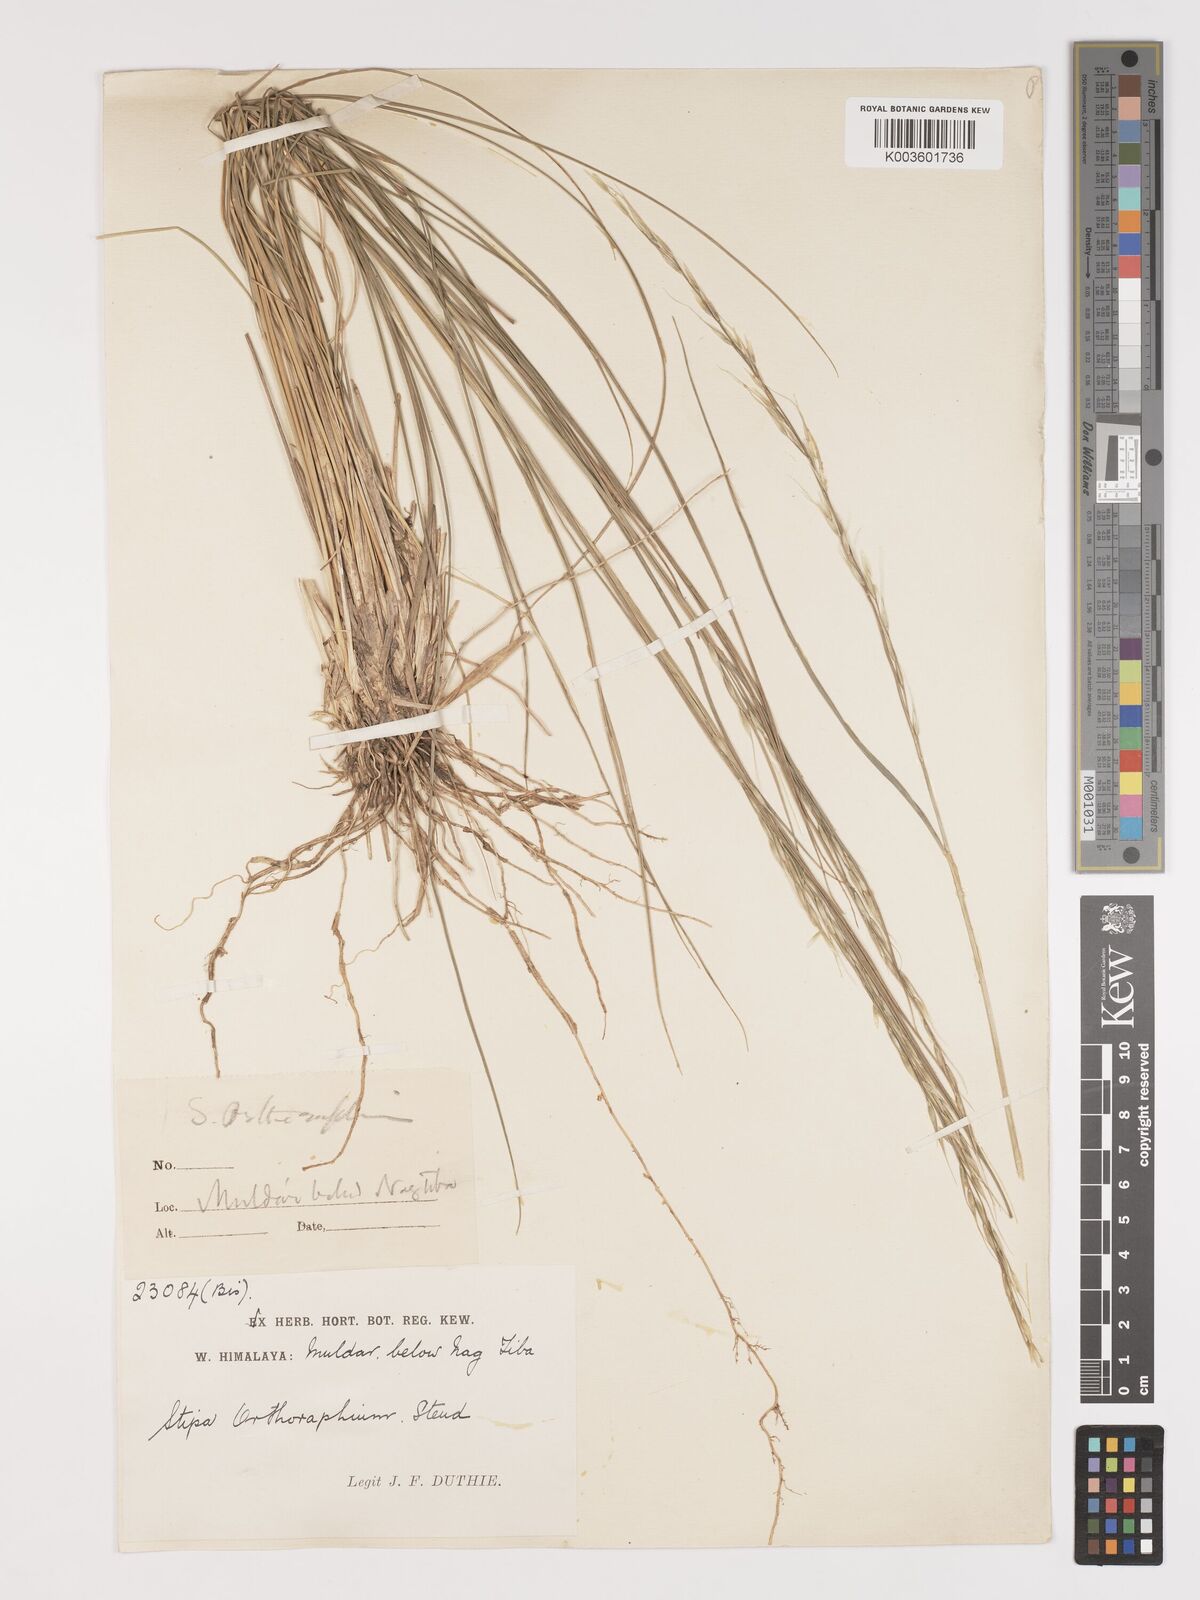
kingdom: Plantae
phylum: Tracheophyta
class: Liliopsida
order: Poales
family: Poaceae
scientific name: Poaceae
